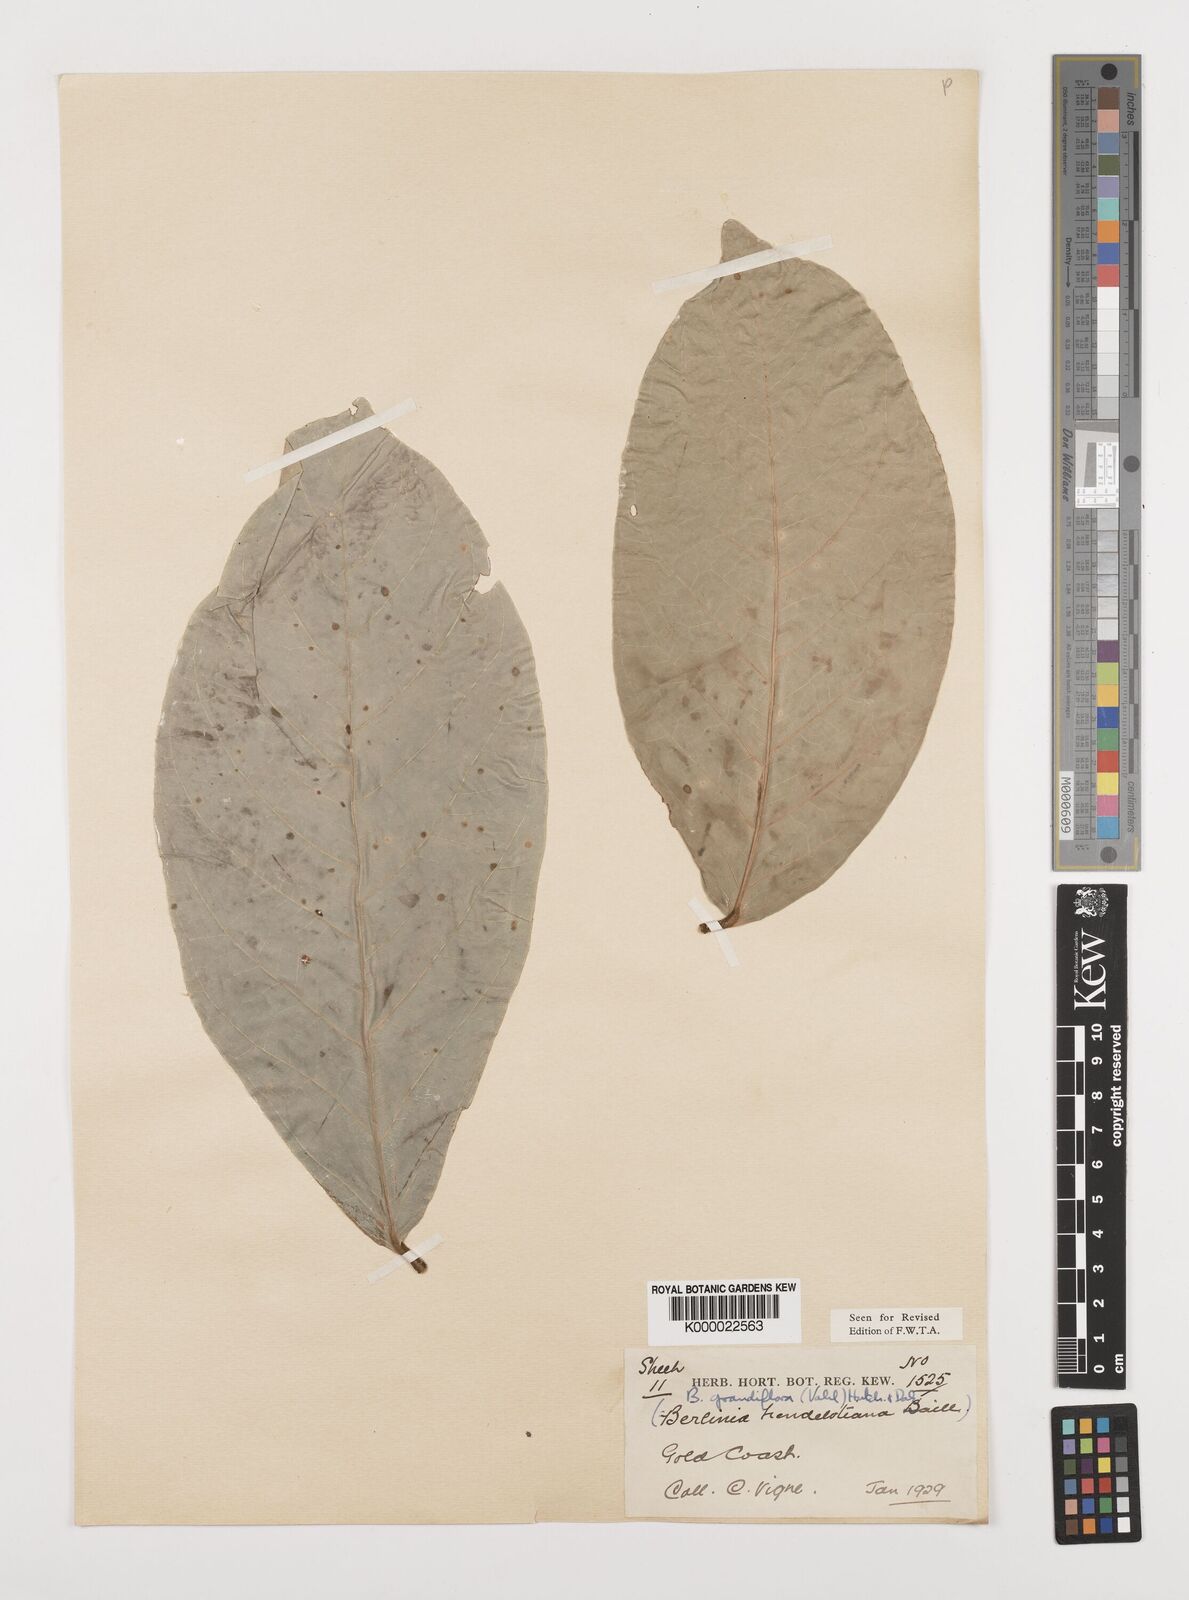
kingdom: Plantae
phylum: Tracheophyta
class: Magnoliopsida
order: Fabales
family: Fabaceae
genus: Berlinia
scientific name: Berlinia grandiflora
